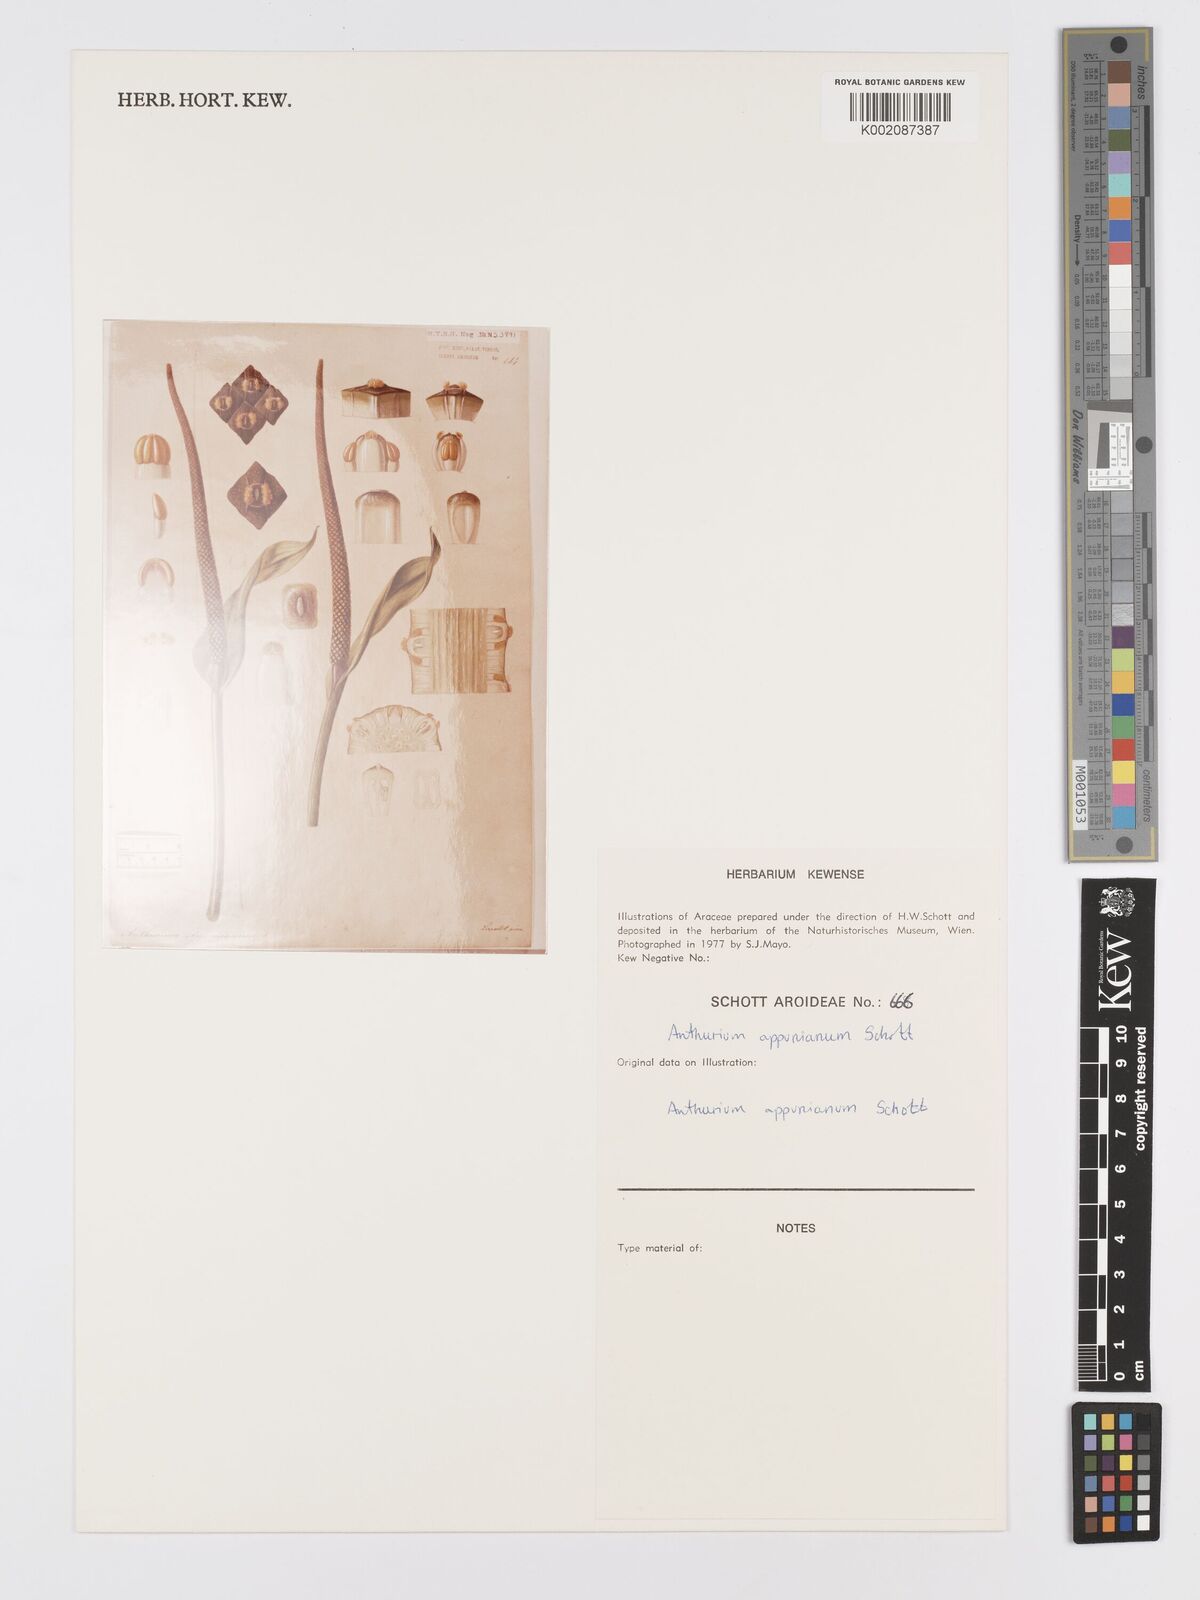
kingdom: Plantae
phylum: Tracheophyta
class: Liliopsida
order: Alismatales
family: Araceae
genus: Anthurium
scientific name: Anthurium cartilagineum
